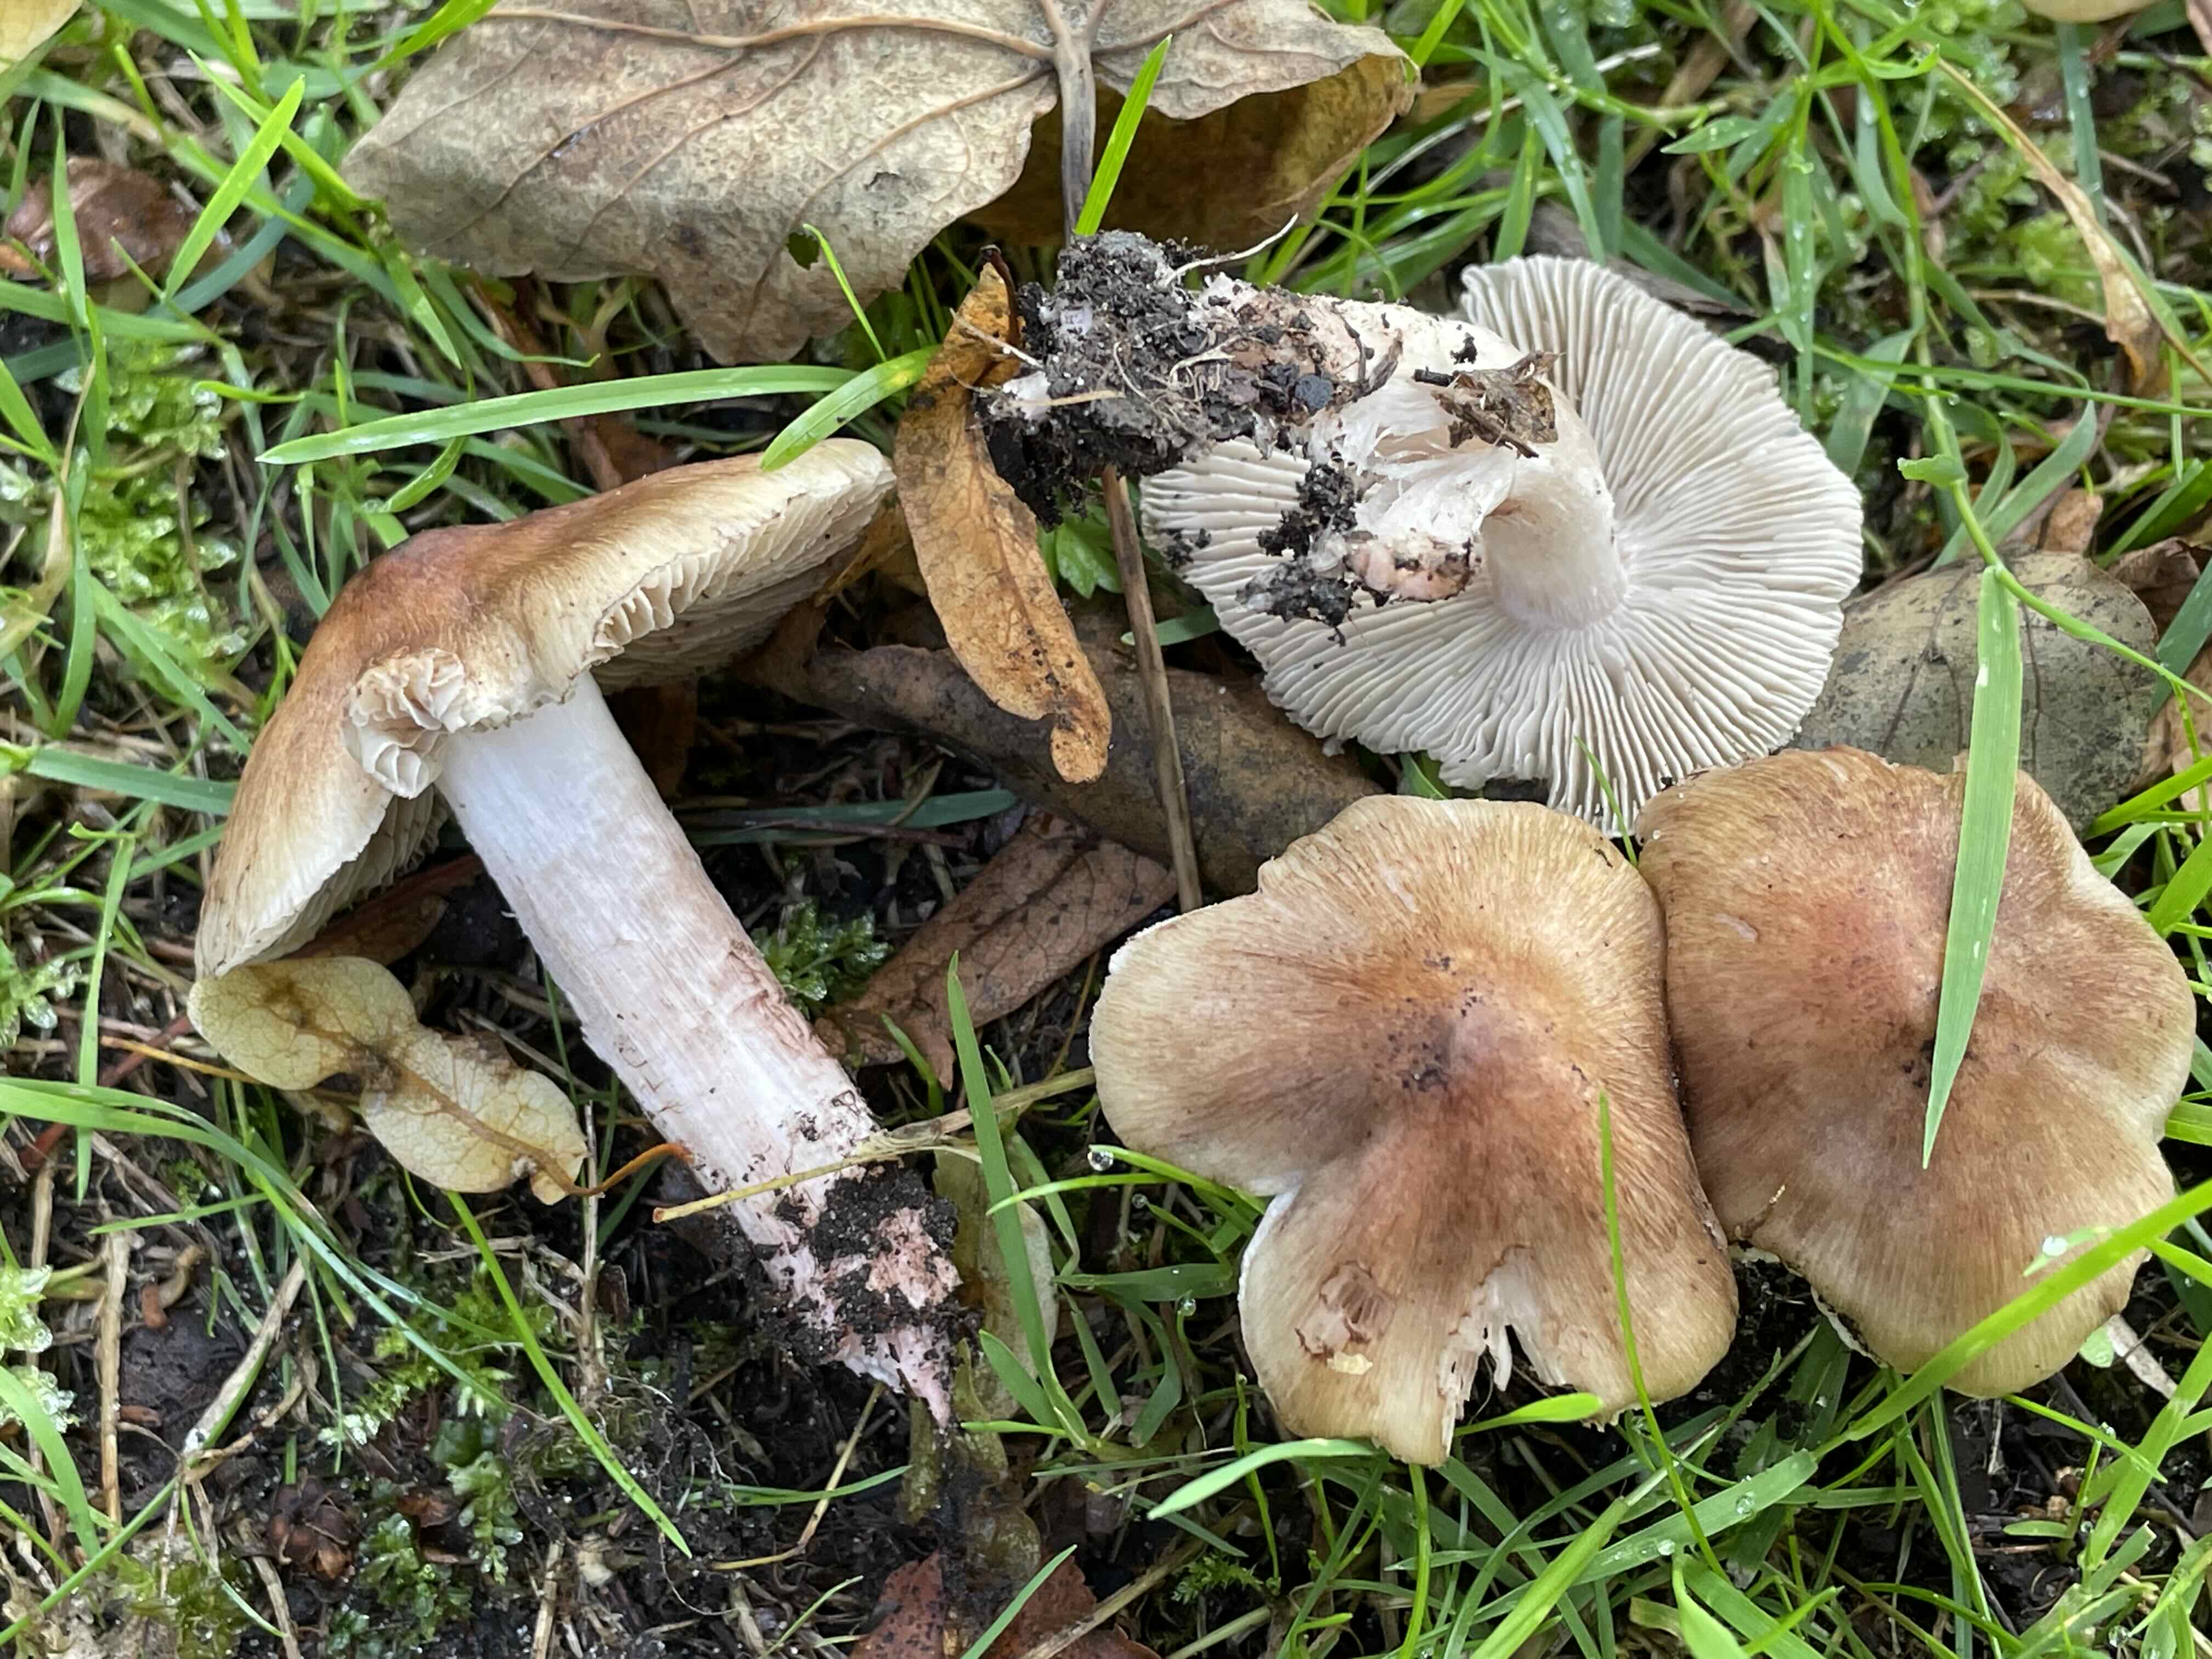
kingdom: Fungi
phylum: Basidiomycota
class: Agaricomycetes
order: Agaricales
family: Inocybaceae
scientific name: Inocybaceae
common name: trævlhatfamilien
